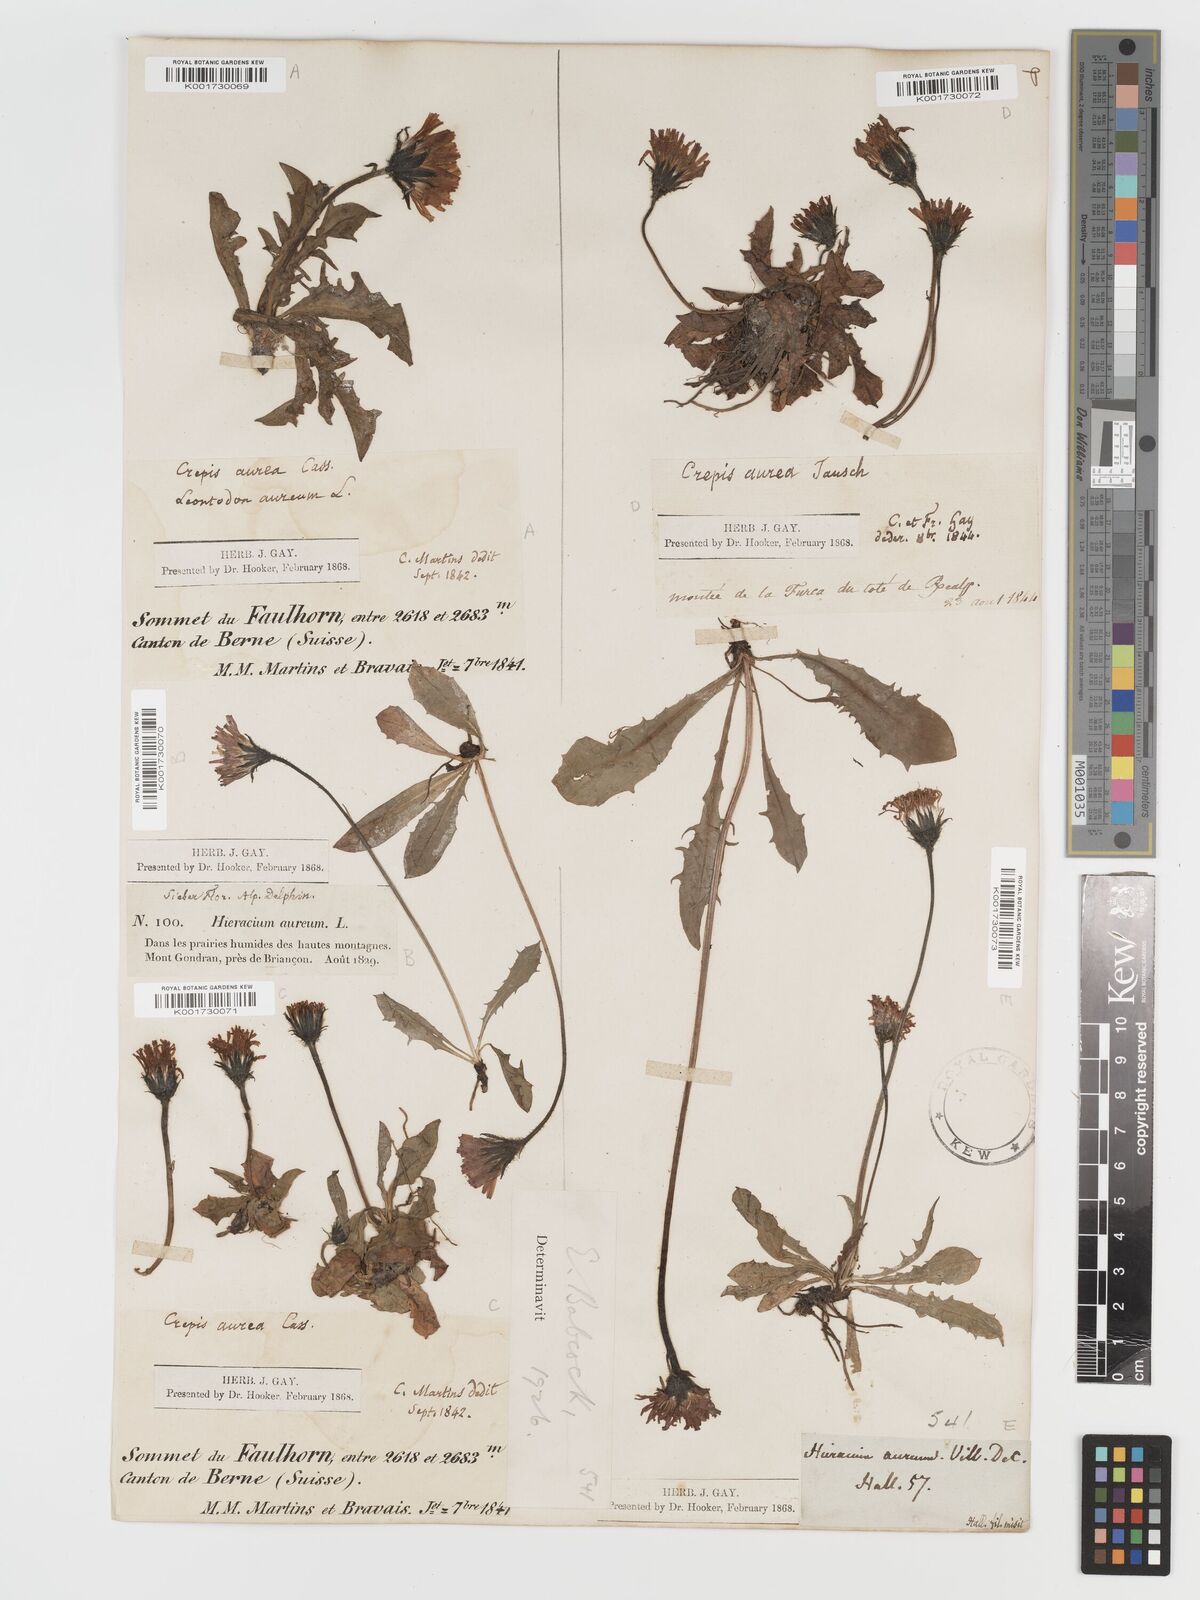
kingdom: Plantae
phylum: Tracheophyta
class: Magnoliopsida
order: Asterales
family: Asteraceae
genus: Crepis
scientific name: Crepis aurea
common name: Golden hawk's-beard
